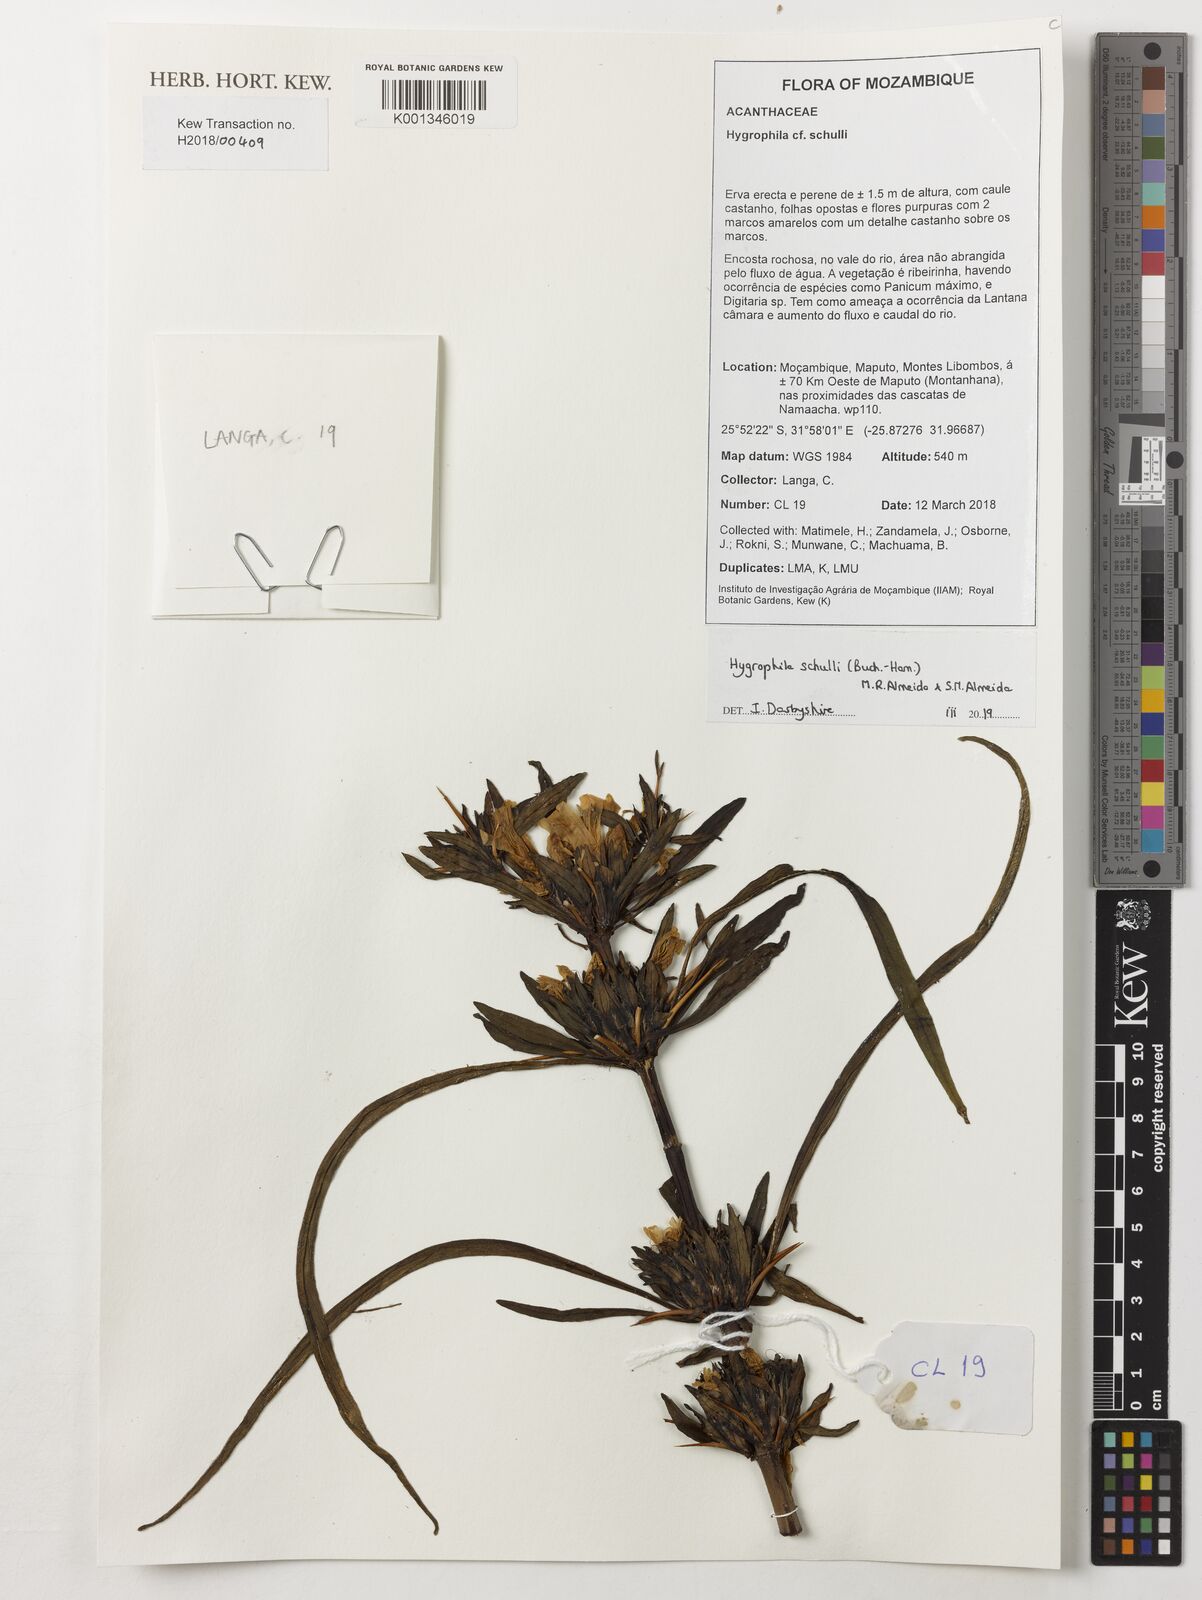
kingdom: Plantae
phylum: Tracheophyta
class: Magnoliopsida
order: Lamiales
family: Acanthaceae
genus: Hygrophila
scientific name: Hygrophila auriculata
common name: Hygrophila
